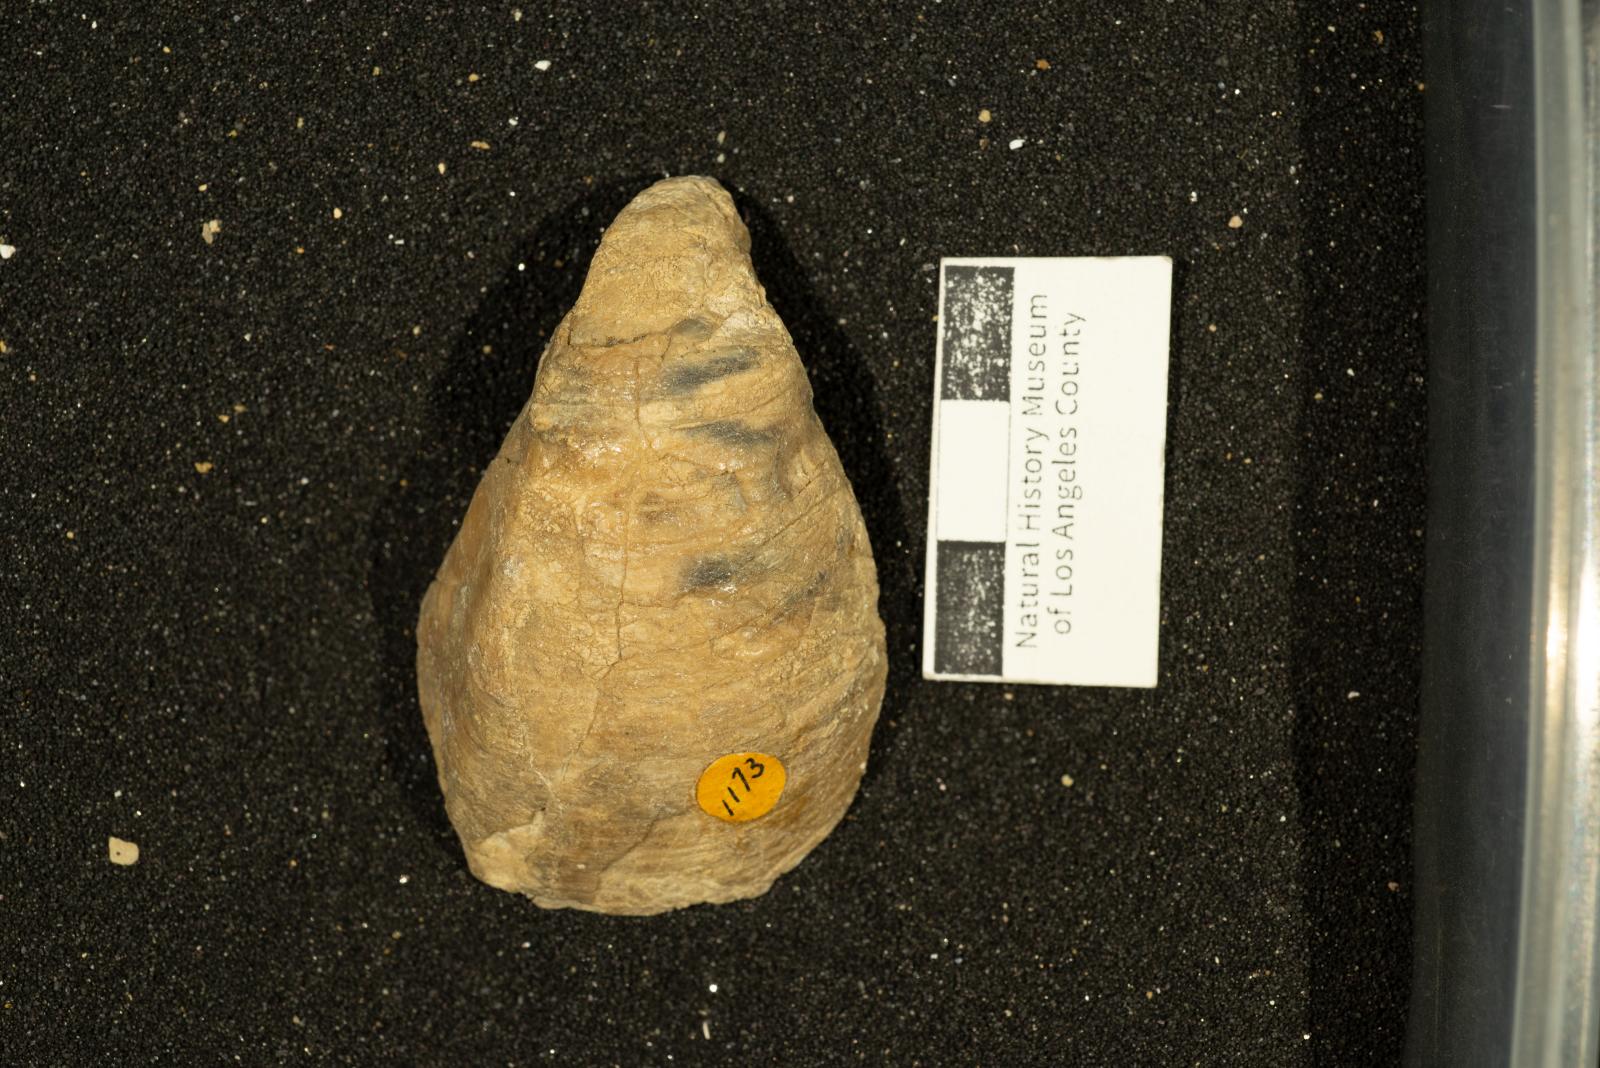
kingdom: Animalia
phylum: Mollusca
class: Bivalvia
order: Carditida
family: Astartidae
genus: Opis
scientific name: Opis anae
